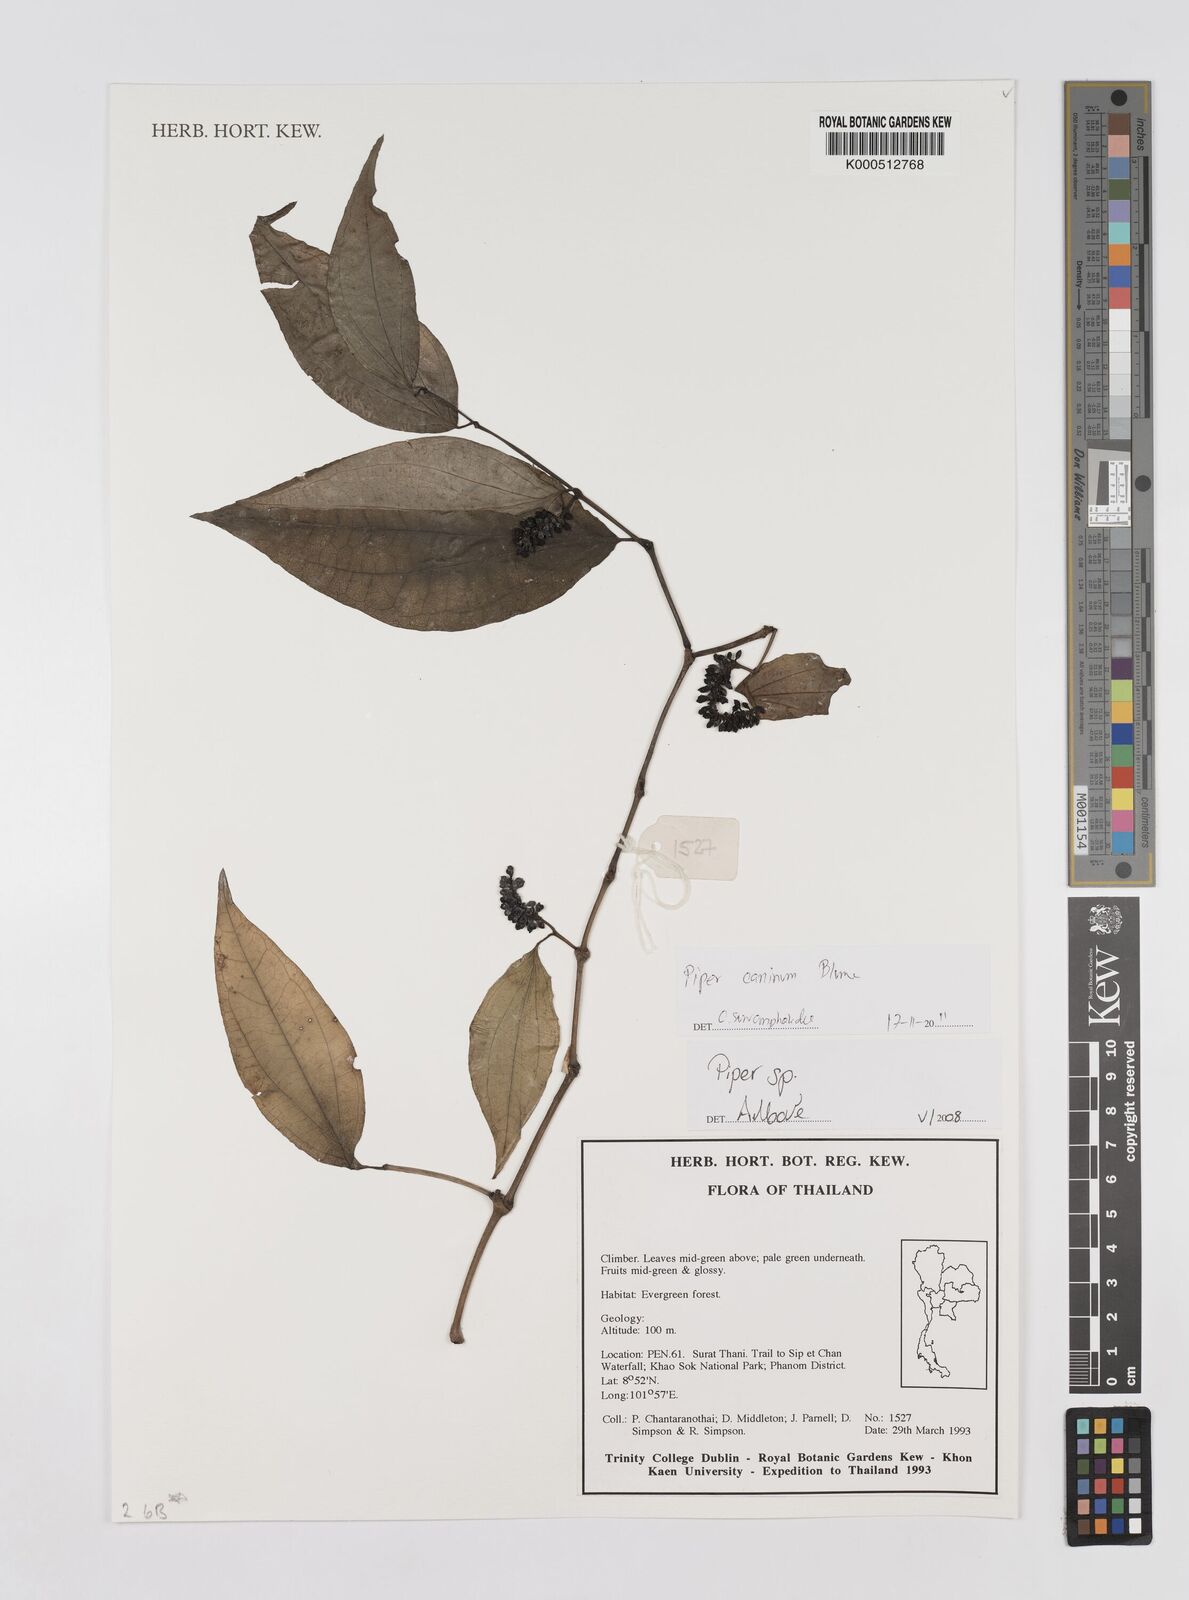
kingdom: Plantae
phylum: Tracheophyta
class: Magnoliopsida
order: Piperales
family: Piperaceae
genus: Piper
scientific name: Piper
